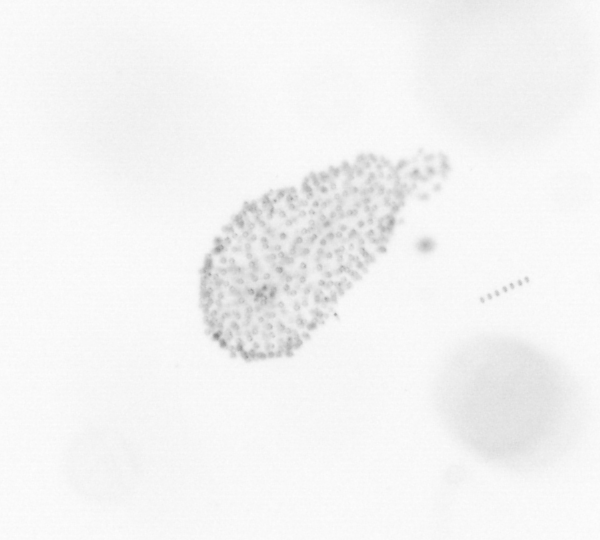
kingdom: Chromista
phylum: Ochrophyta
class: Bacillariophyceae
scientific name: Bacillariophyceae
